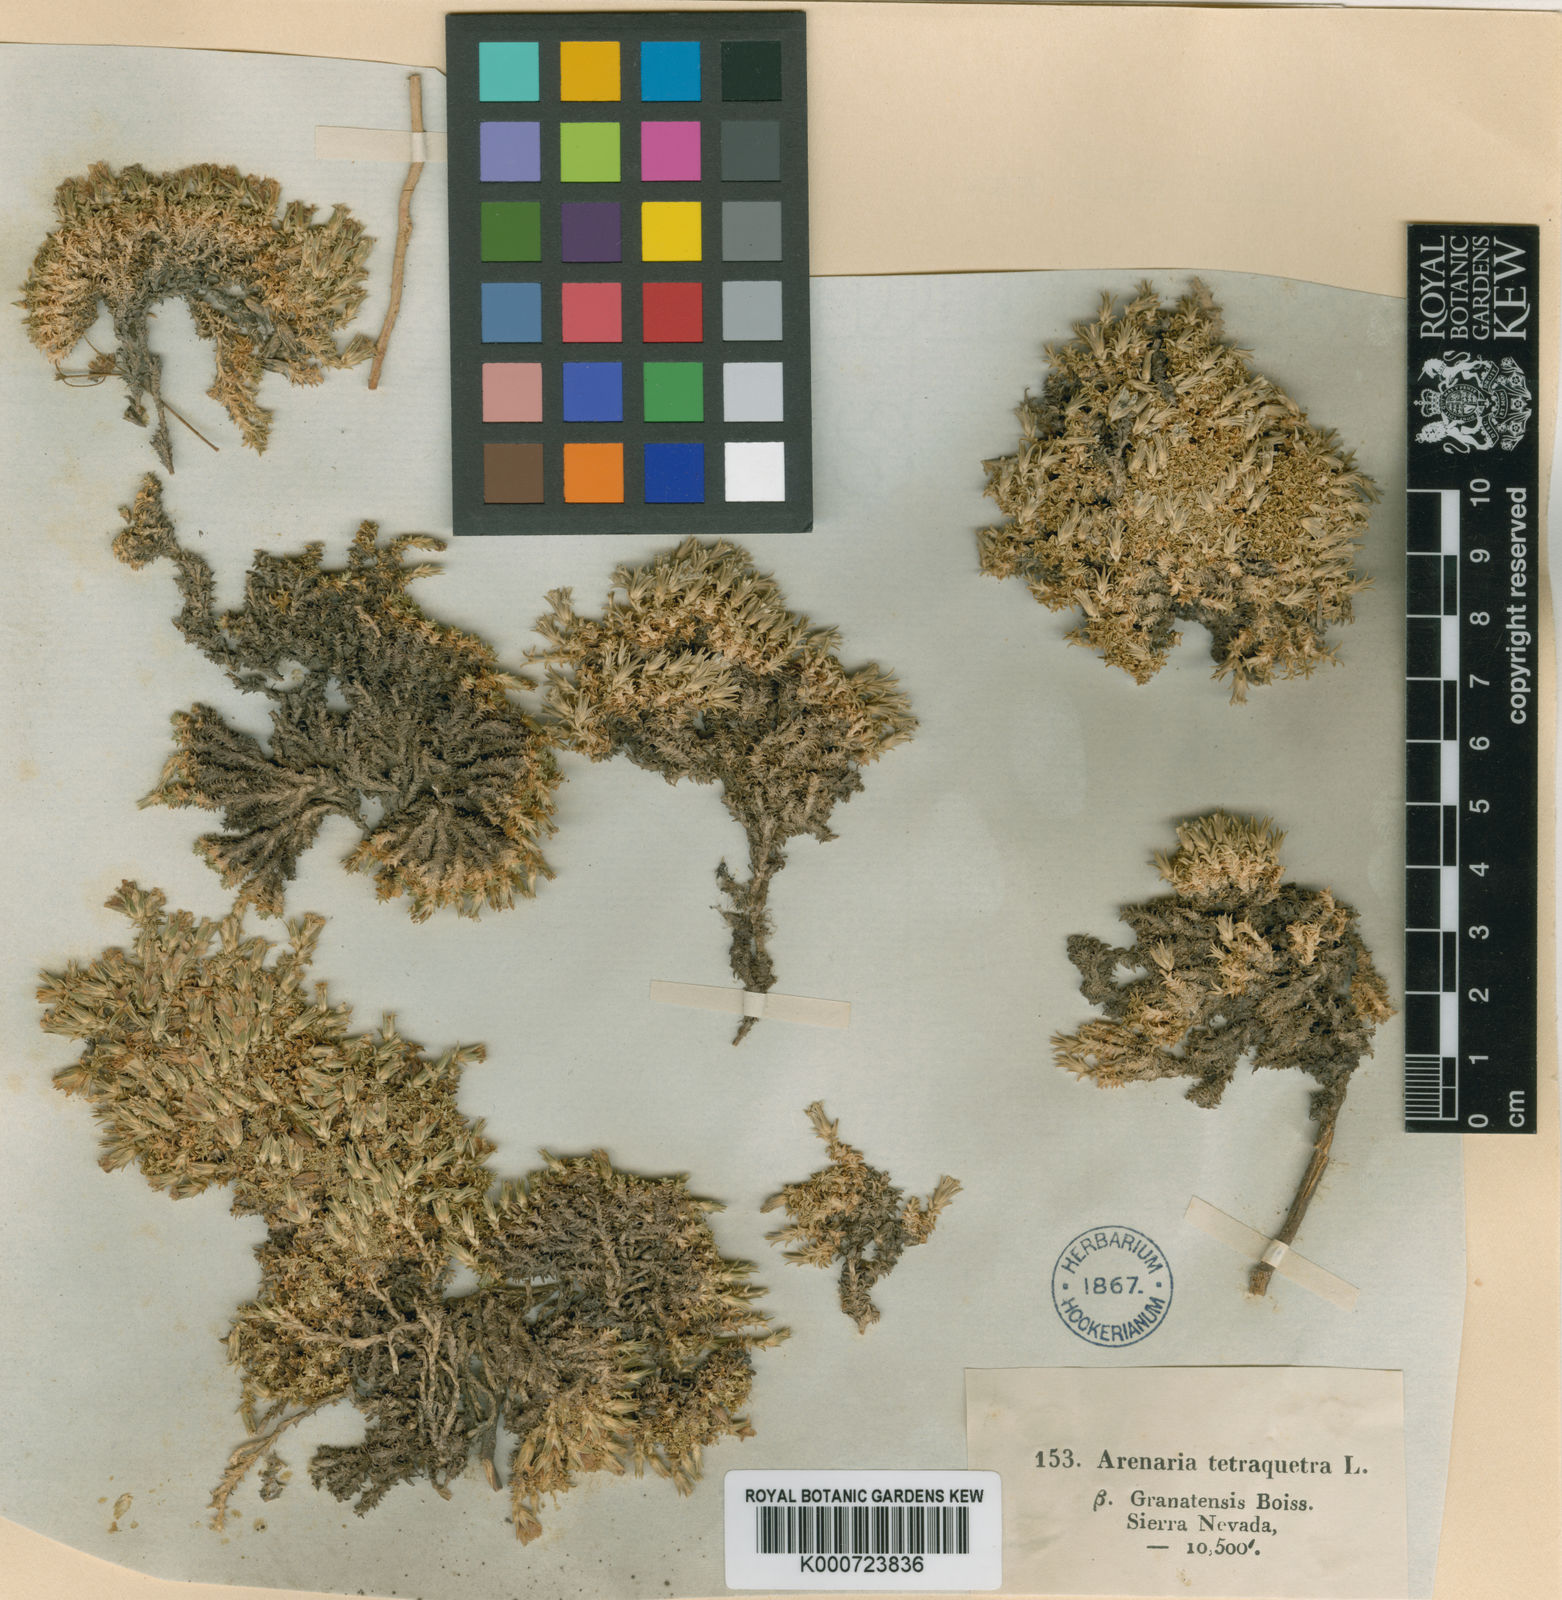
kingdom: Plantae
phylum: Tracheophyta
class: Magnoliopsida
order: Caryophyllales
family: Caryophyllaceae
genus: Arenaria
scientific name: Arenaria tetraquetra
